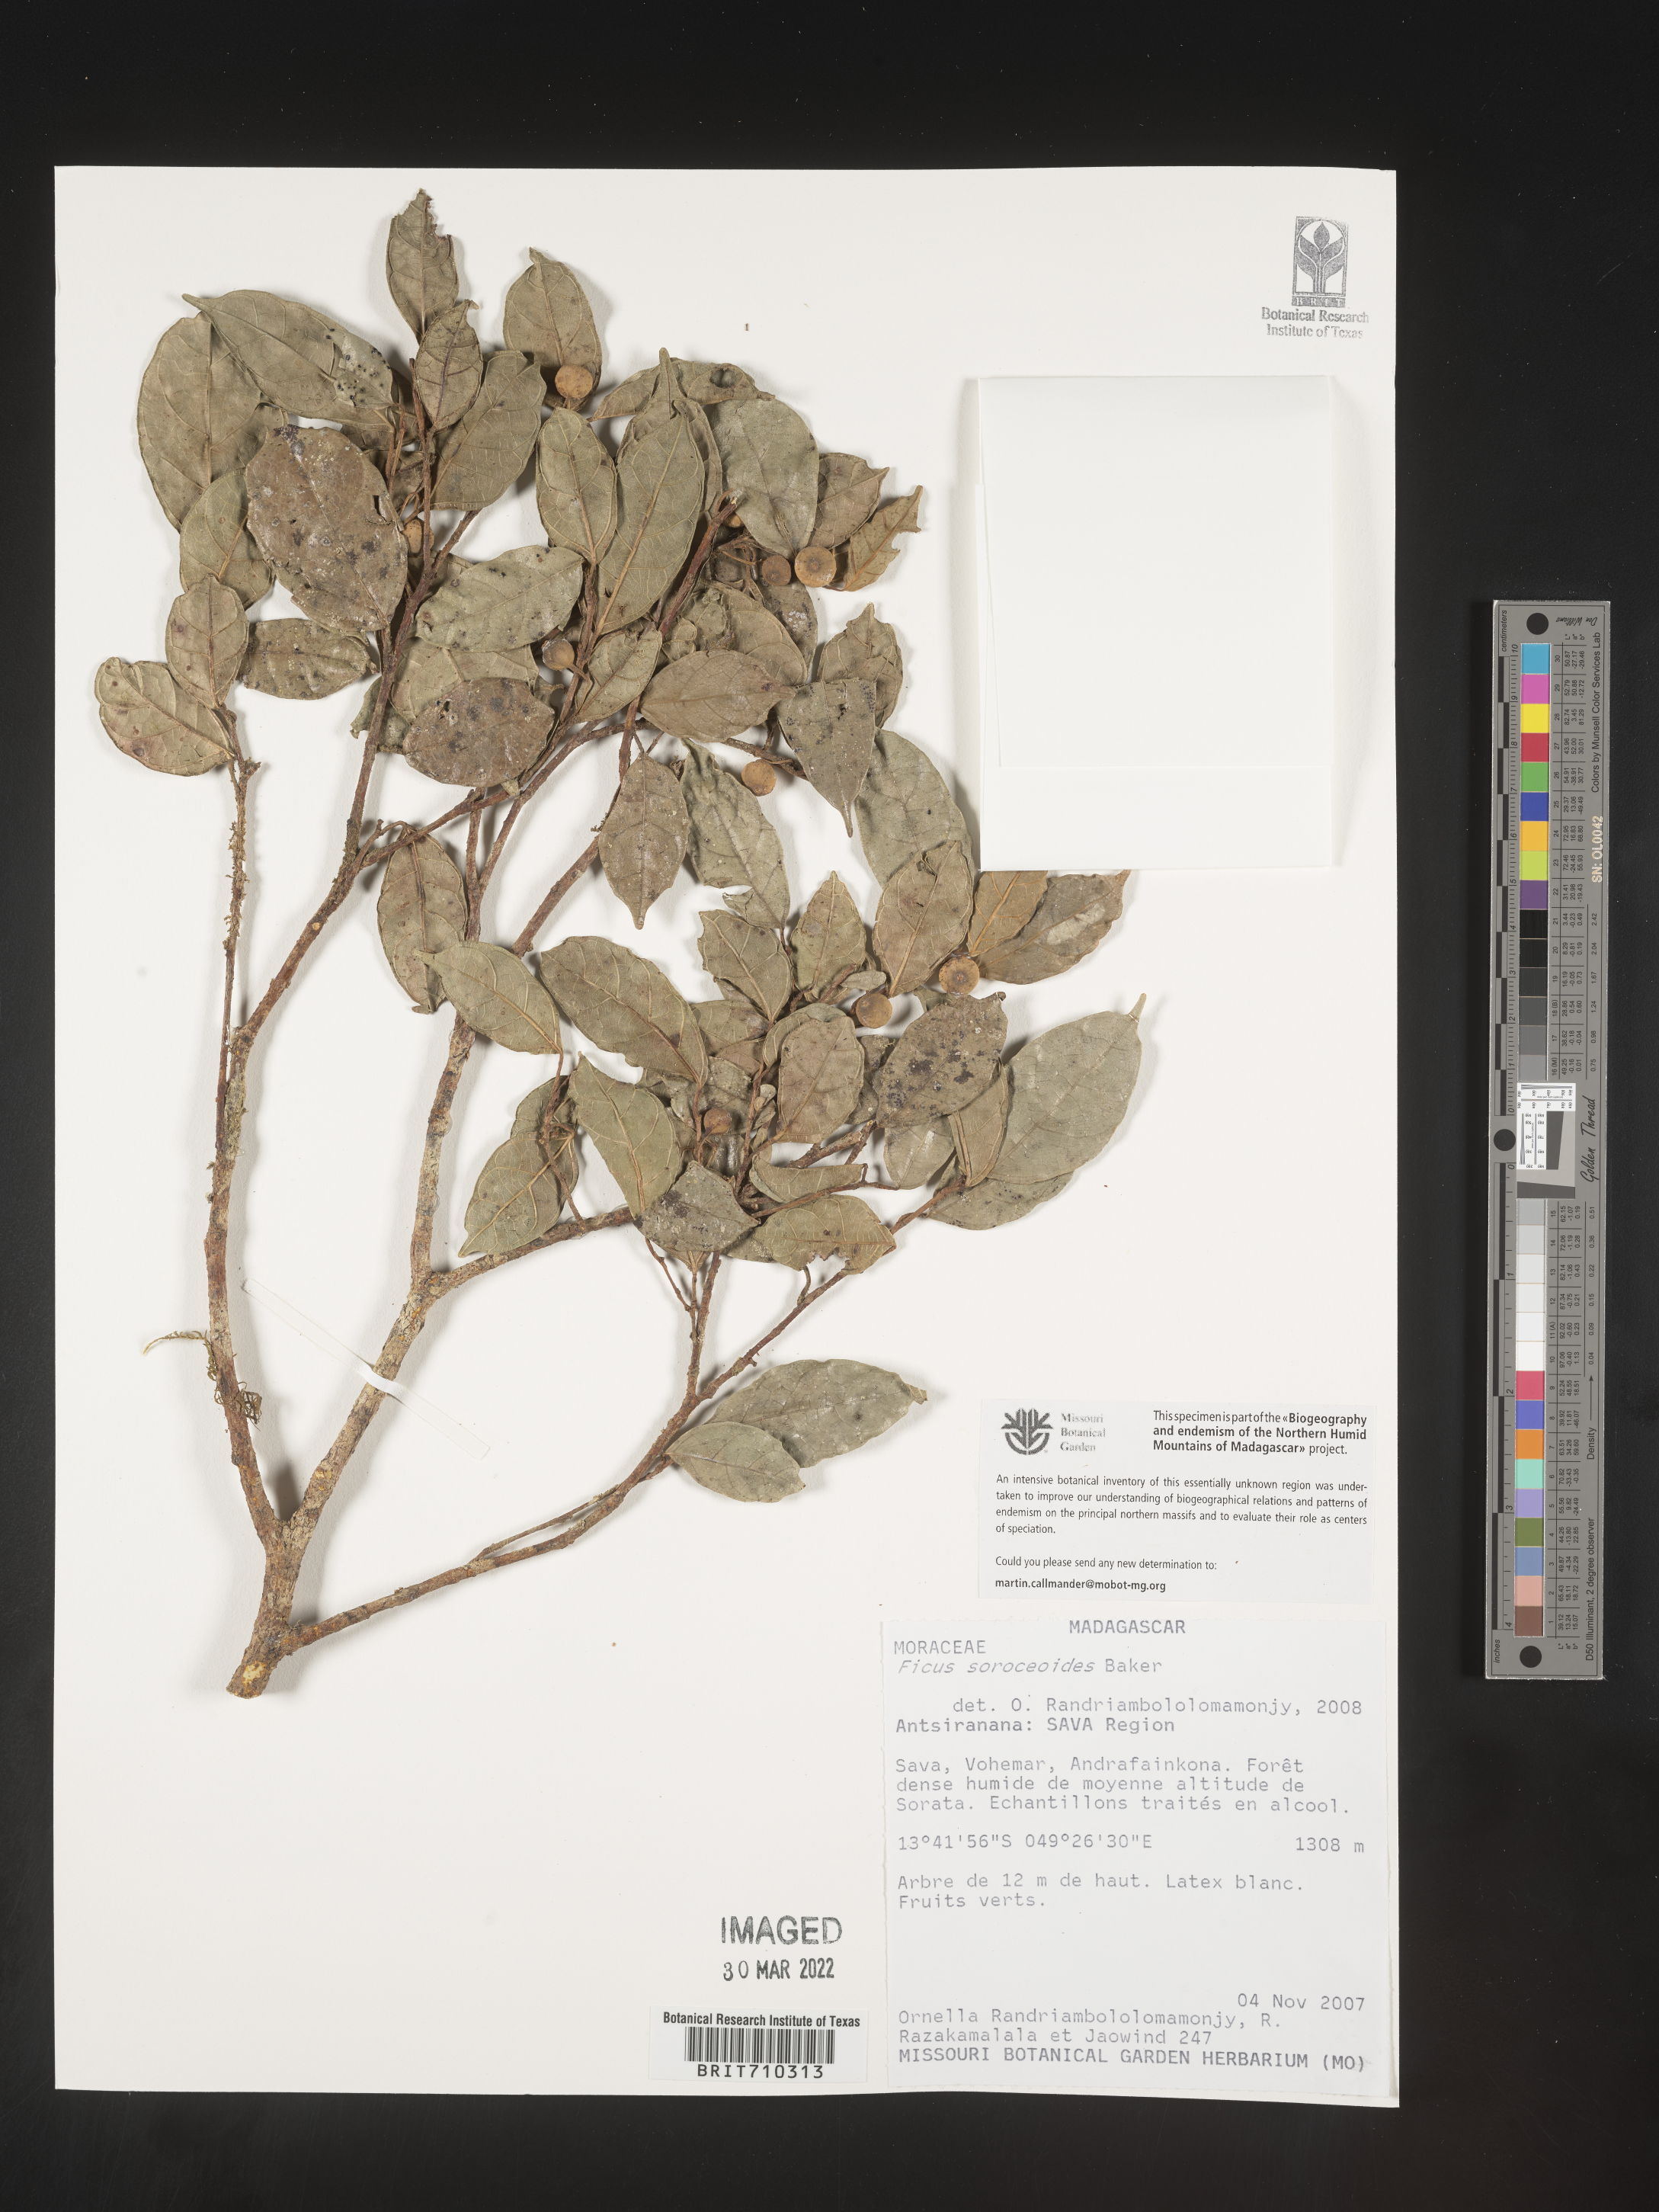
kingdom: Plantae
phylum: Tracheophyta
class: Magnoliopsida
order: Rosales
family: Moraceae
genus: Ficus
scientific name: Ficus
